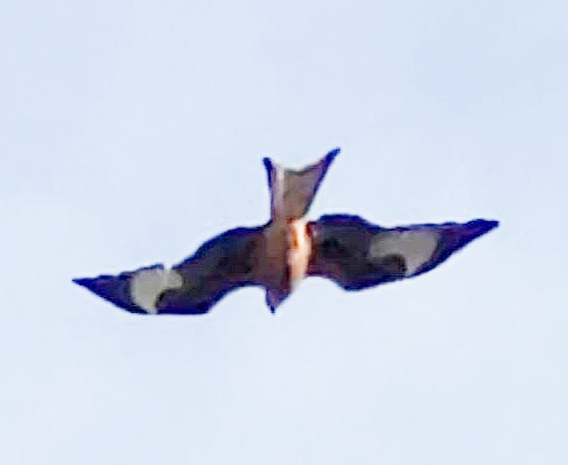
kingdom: Animalia
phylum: Chordata
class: Aves
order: Accipitriformes
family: Accipitridae
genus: Milvus
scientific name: Milvus milvus
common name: Rød glente
